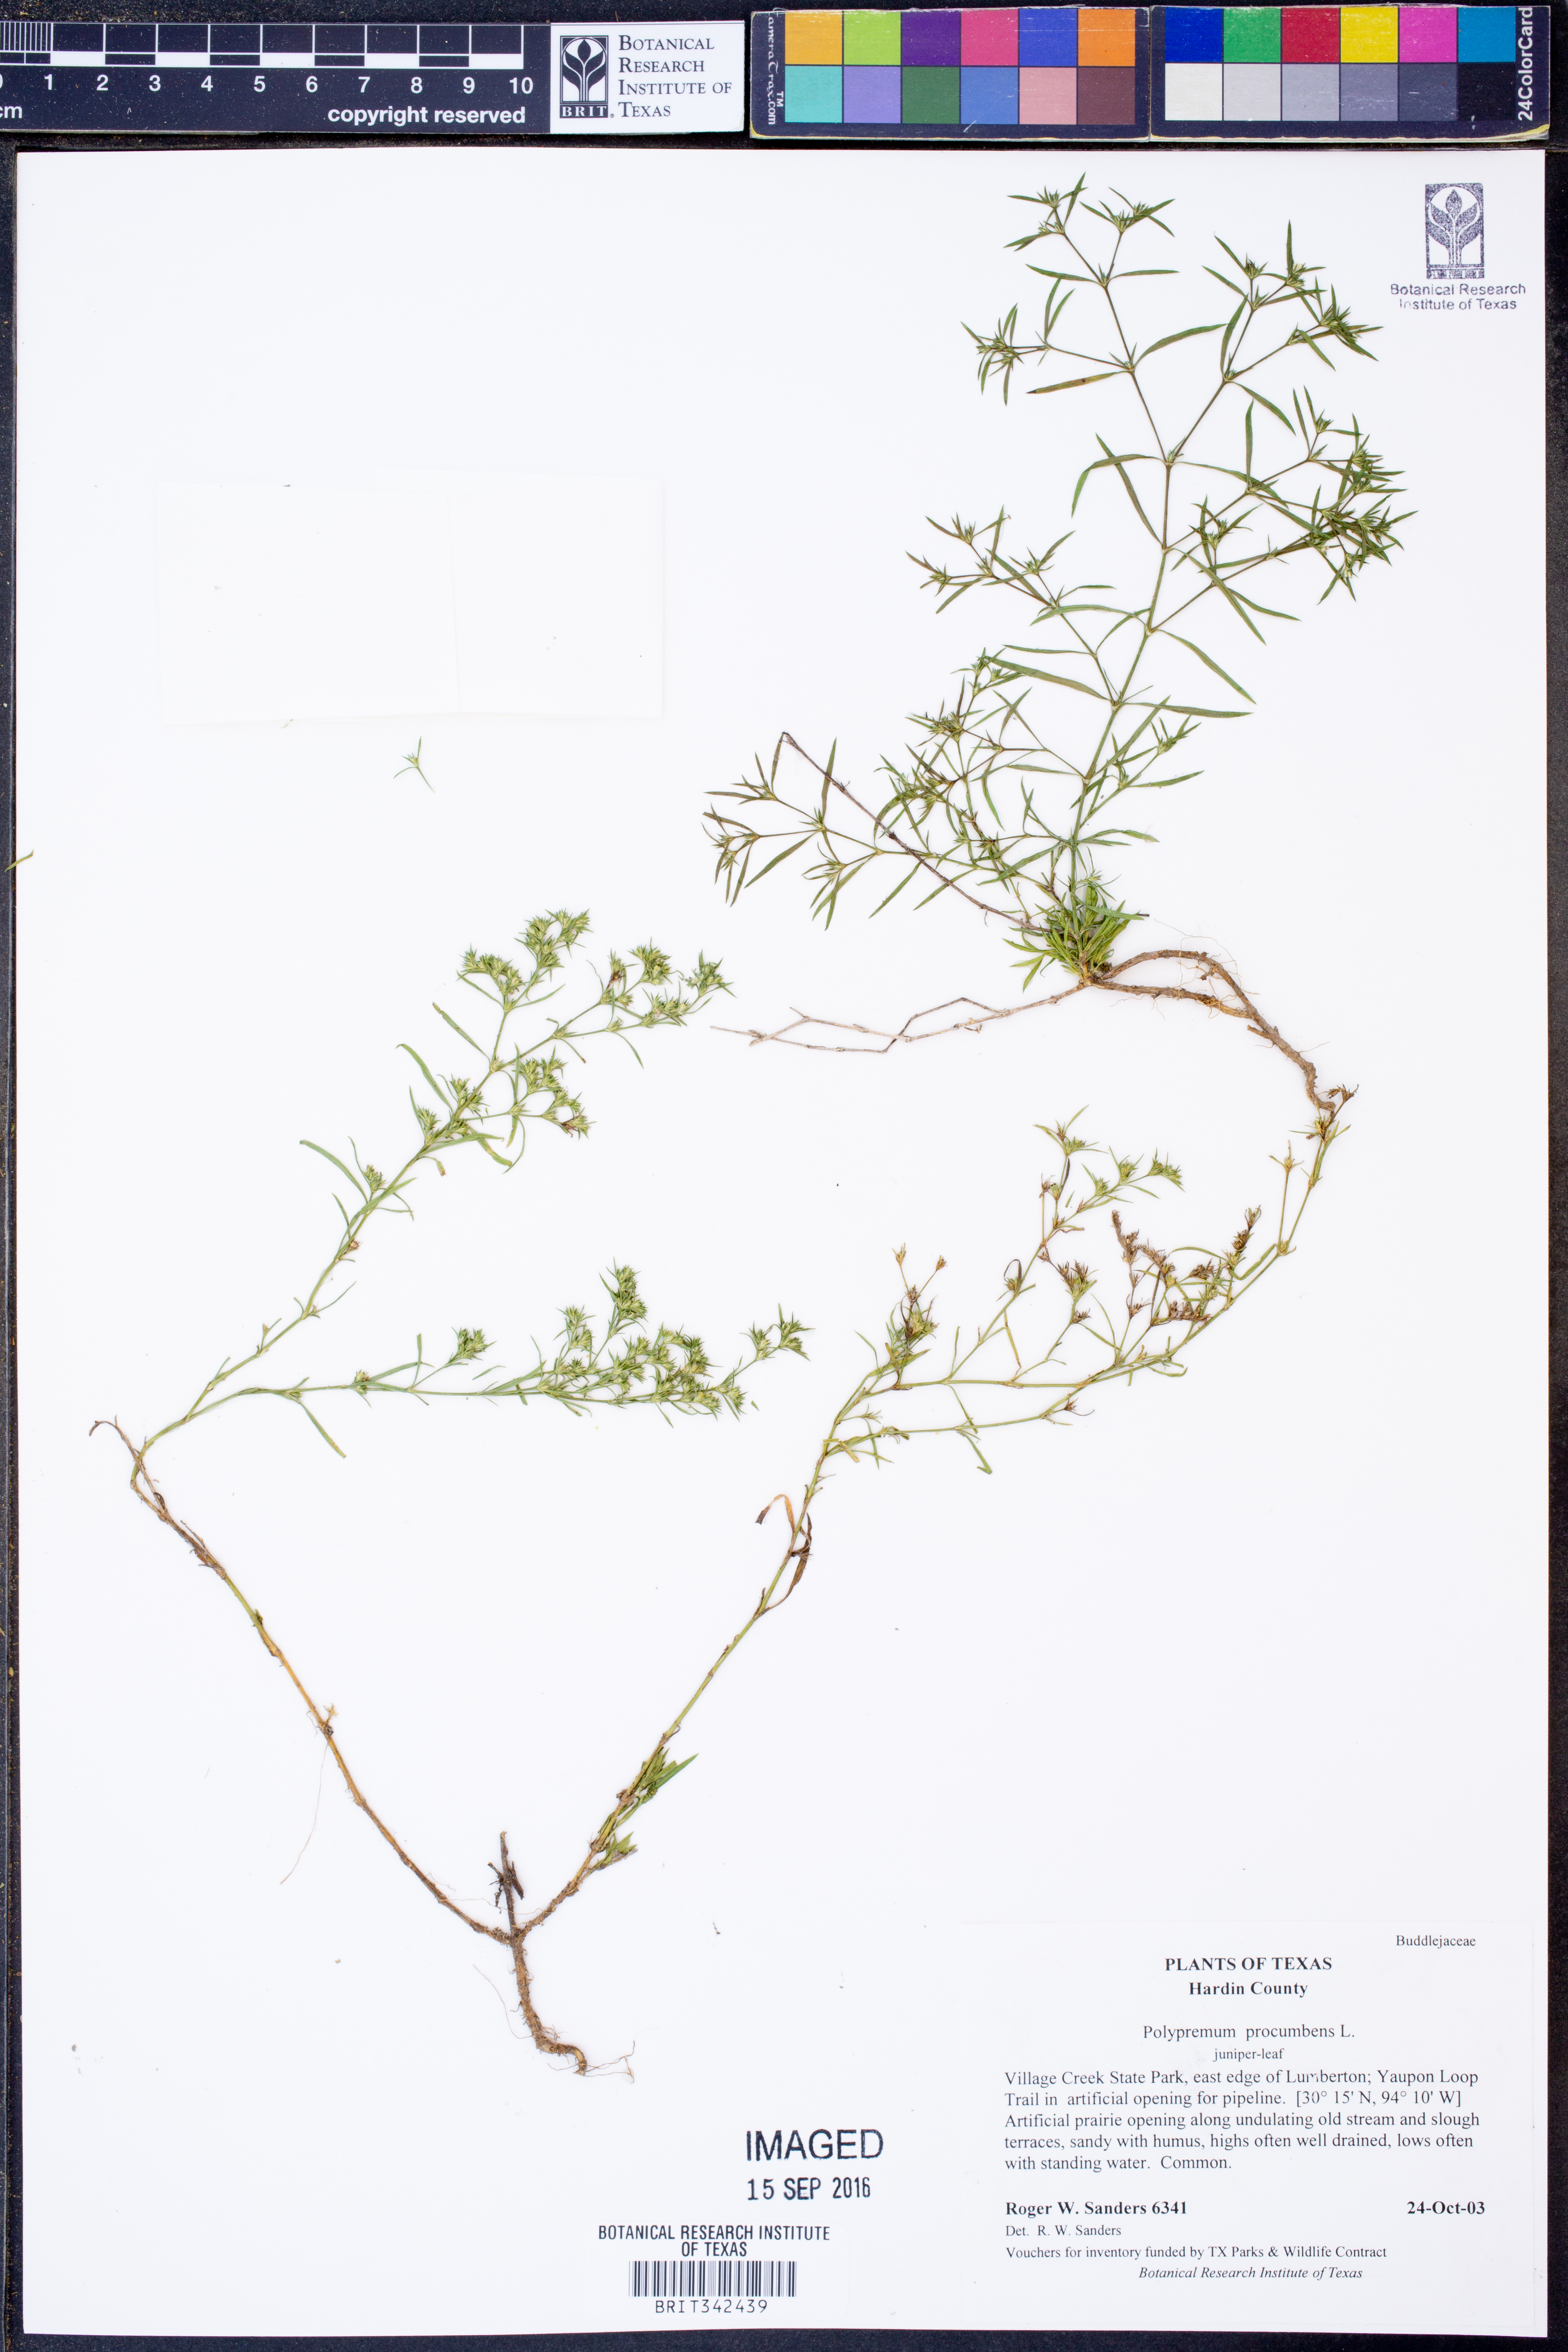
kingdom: Plantae
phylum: Tracheophyta
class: Magnoliopsida
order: Lamiales
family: Tetrachondraceae
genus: Polypremum
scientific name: Polypremum procumbens
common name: Juniper-leaf
